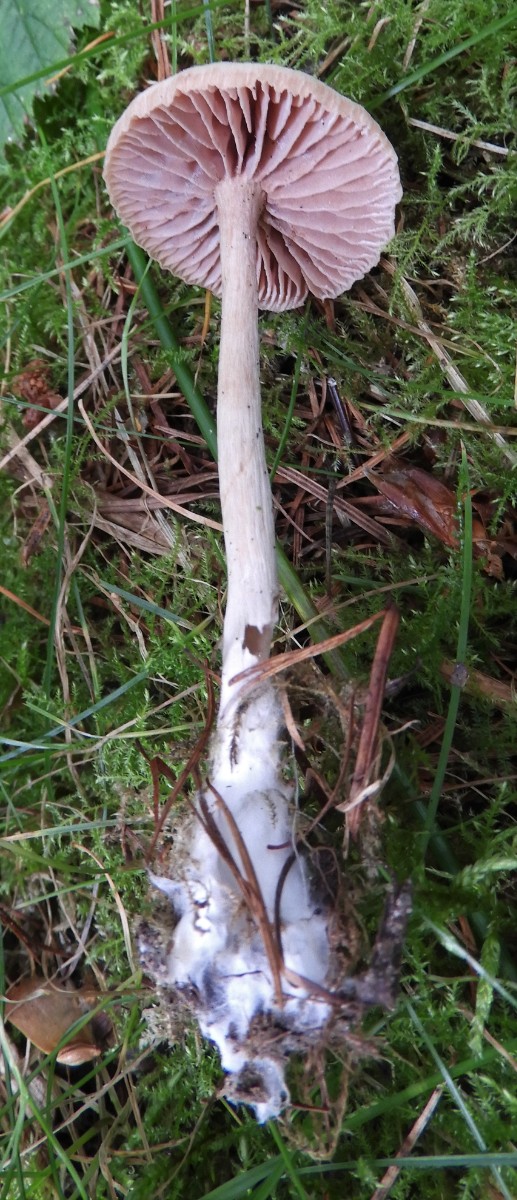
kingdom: Fungi
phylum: Basidiomycota
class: Agaricomycetes
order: Agaricales
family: Hydnangiaceae
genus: Laccaria
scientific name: Laccaria laccata
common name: rød ametysthat
